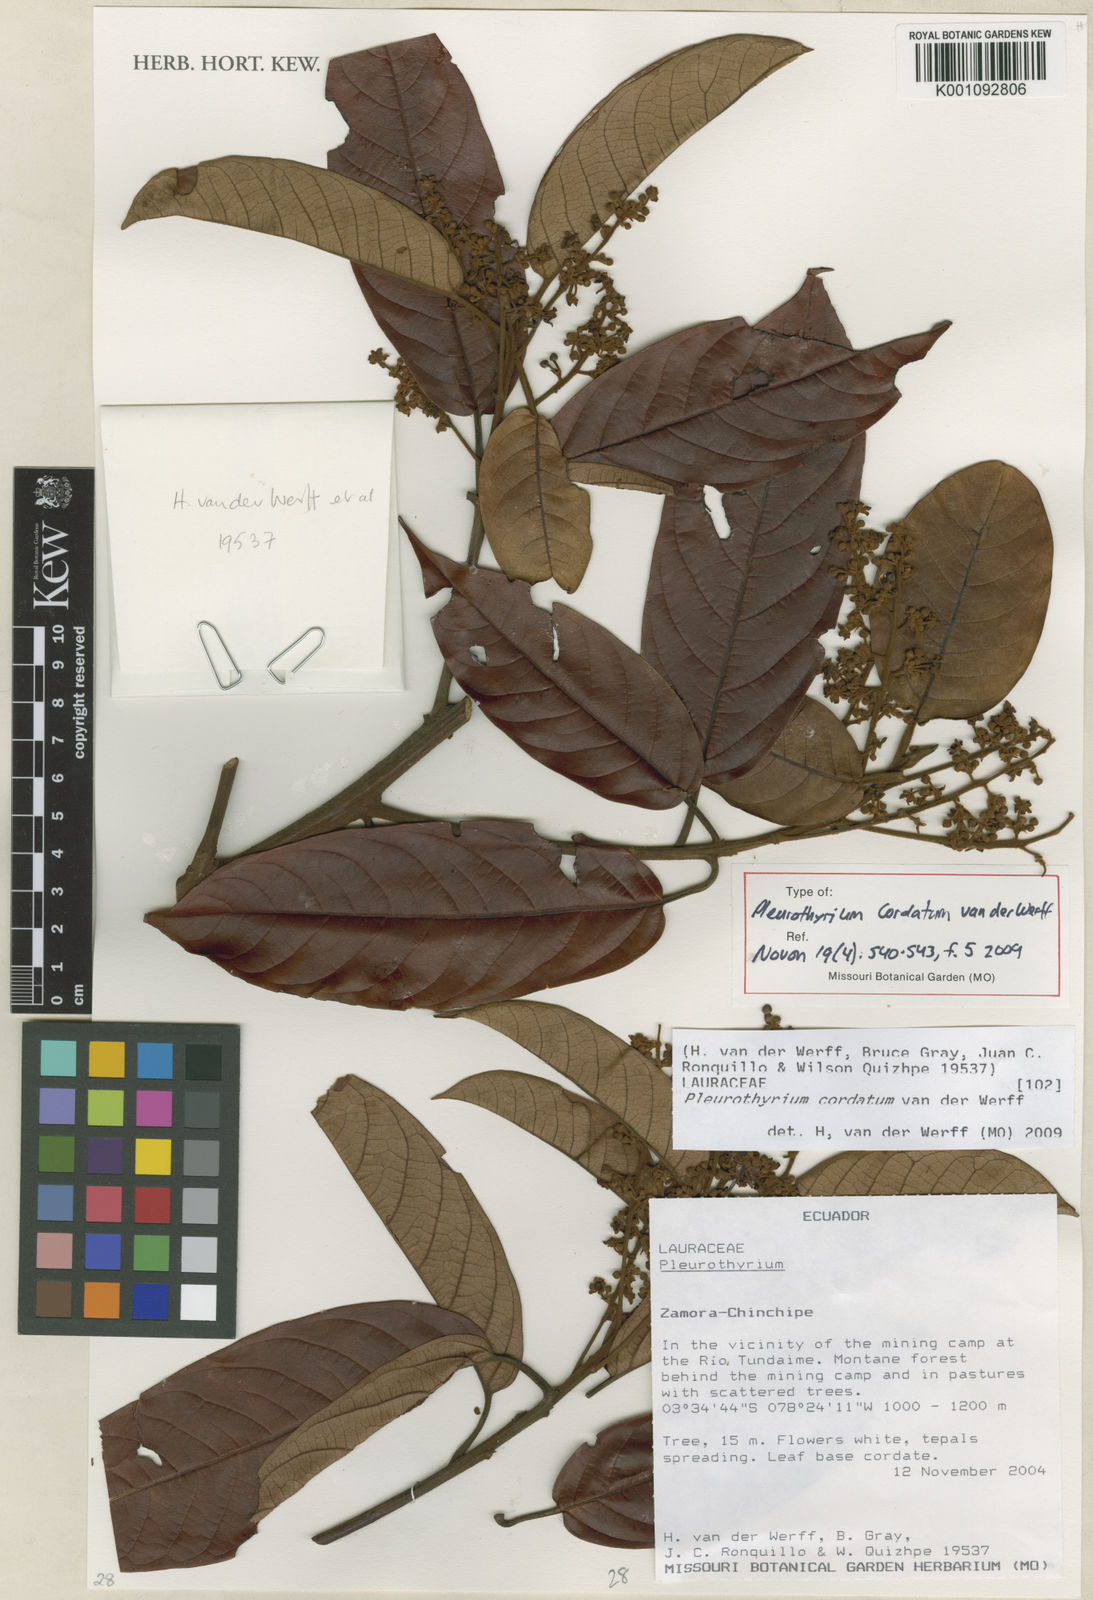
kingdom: Plantae
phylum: Tracheophyta
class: Magnoliopsida
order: Laurales
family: Lauraceae
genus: Pleurothyrium
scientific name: Pleurothyrium cordatum
